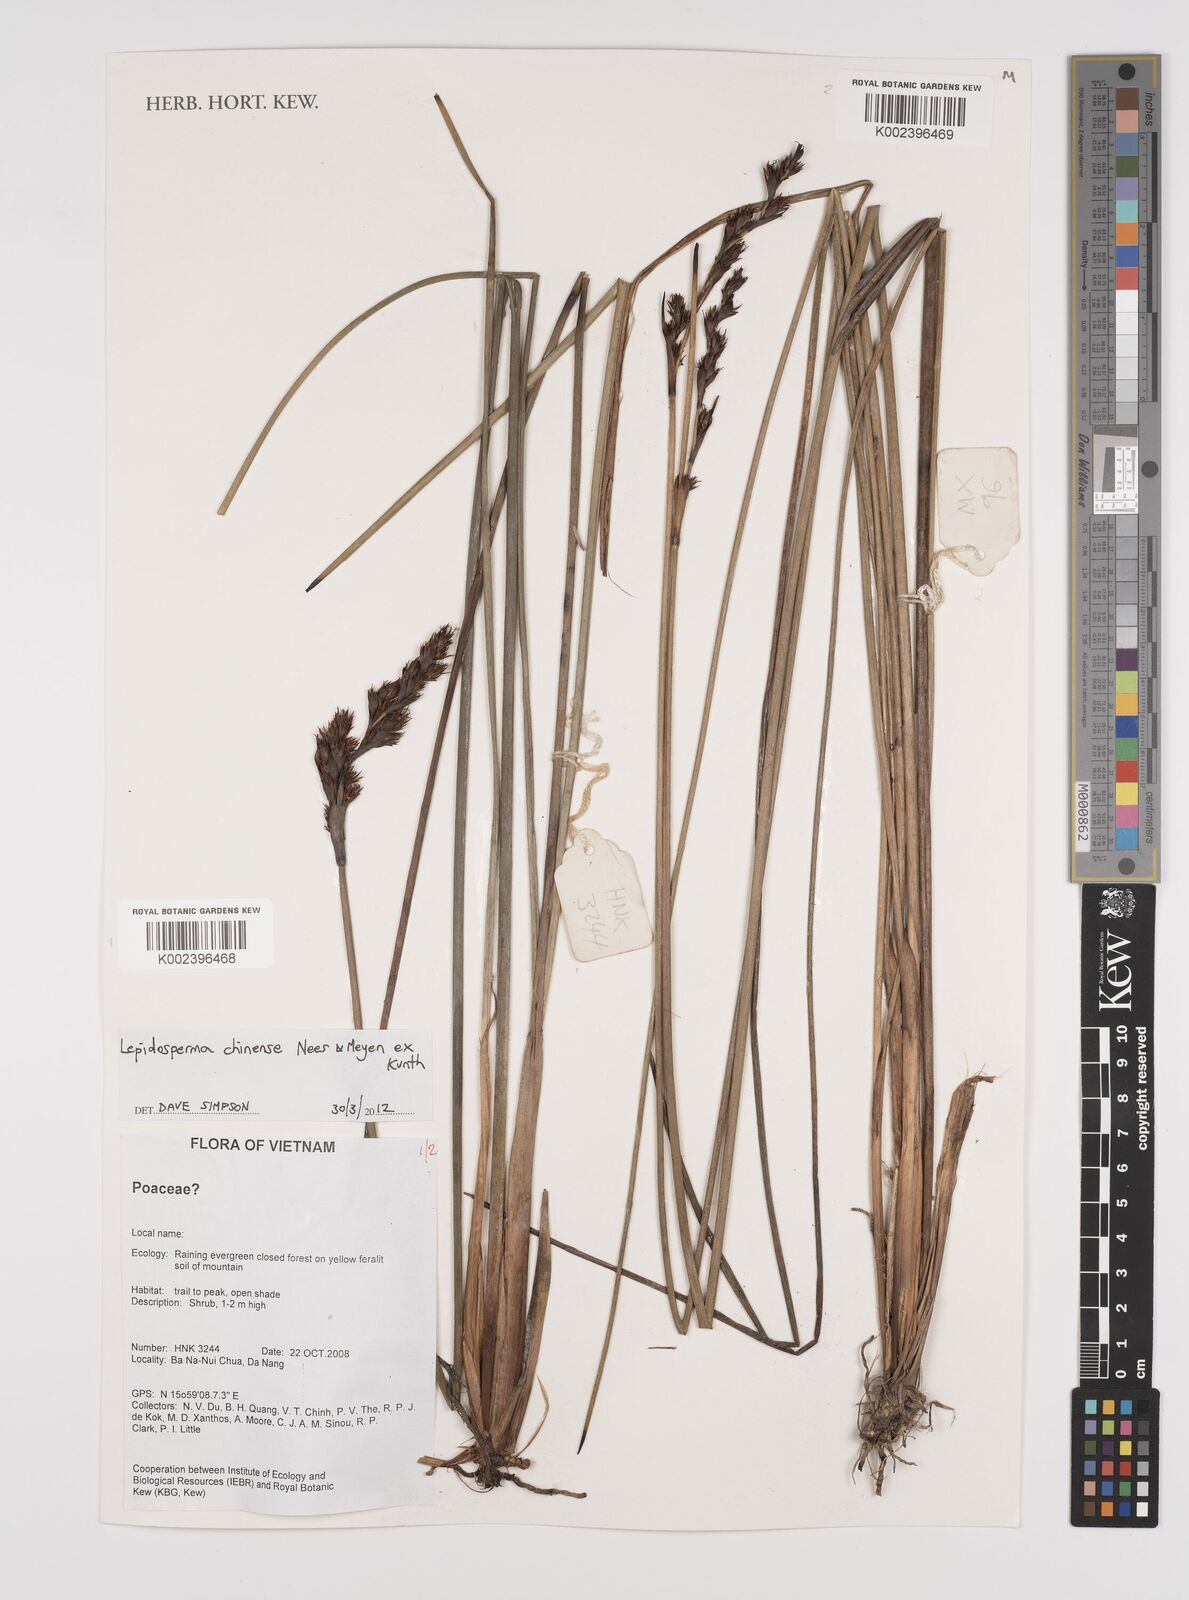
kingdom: Plantae
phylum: Tracheophyta
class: Liliopsida
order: Poales
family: Cyperaceae
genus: Lepidosperma
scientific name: Lepidosperma chinense
